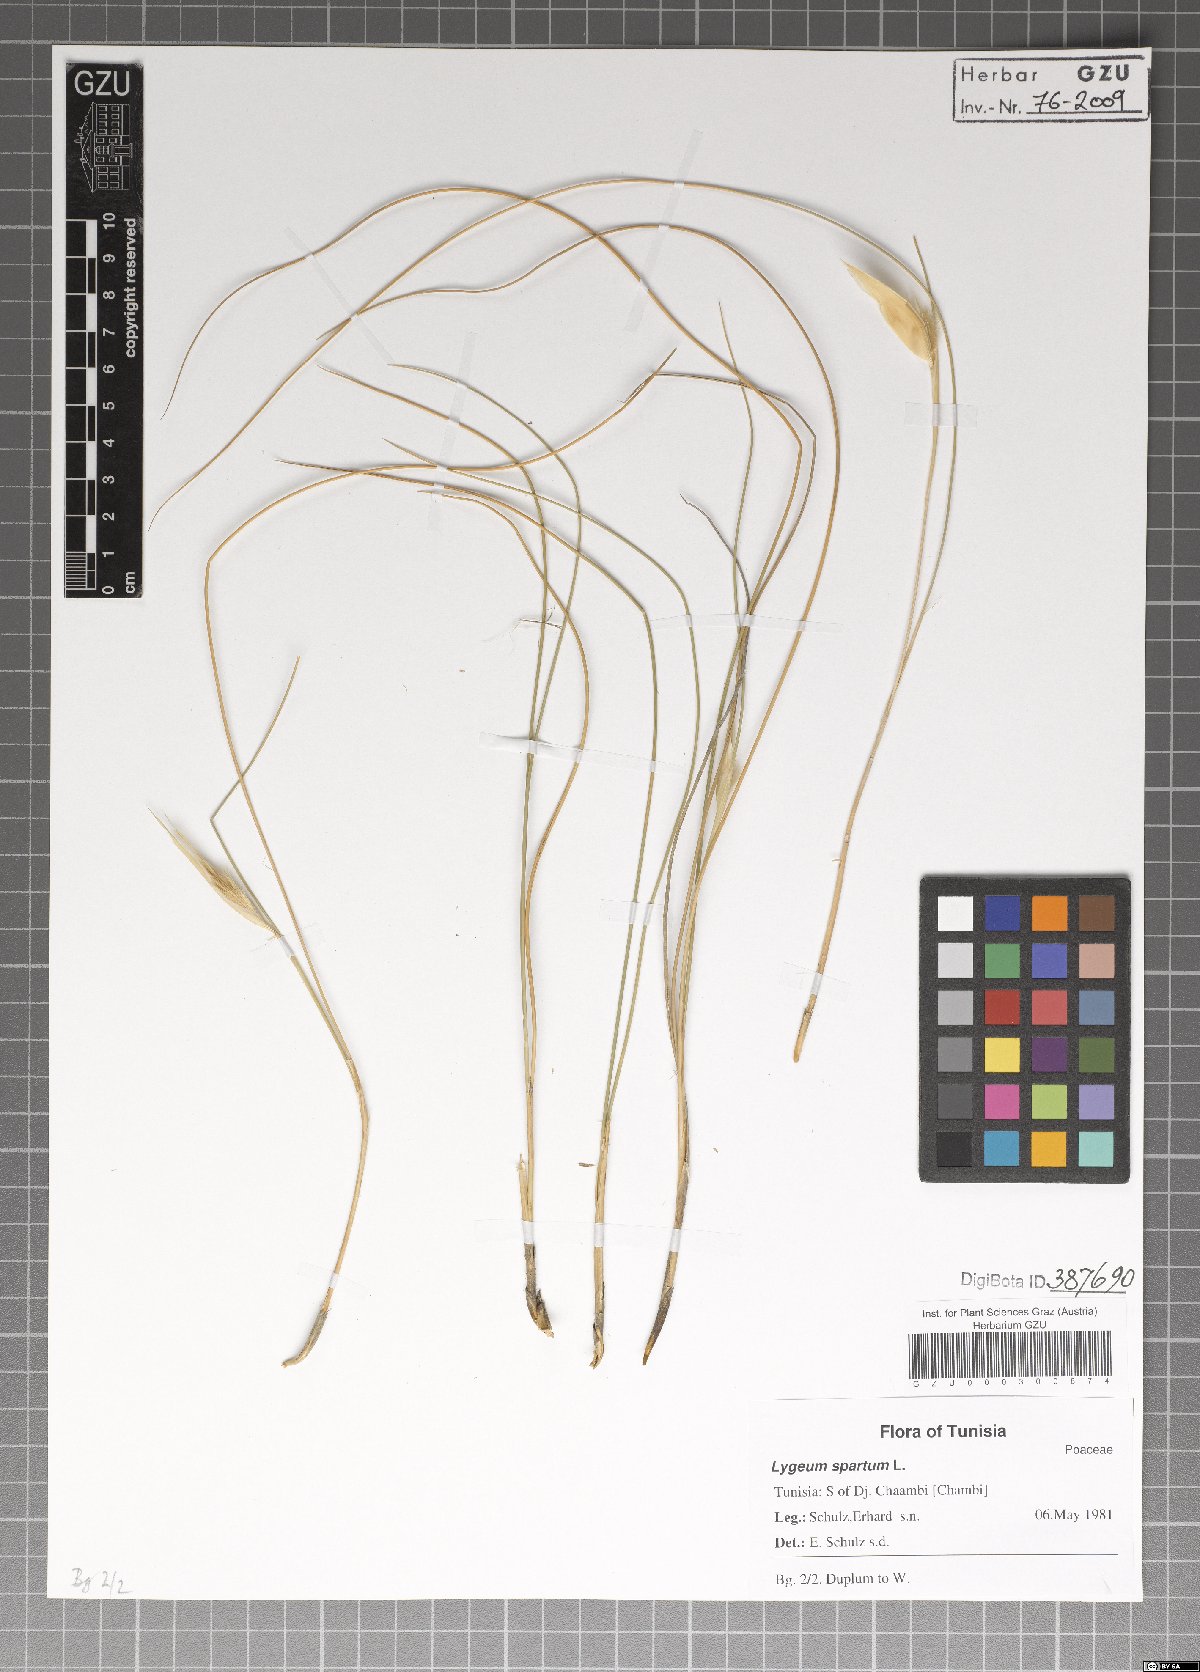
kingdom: Plantae
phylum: Tracheophyta
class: Liliopsida
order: Poales
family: Poaceae
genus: Lygeum
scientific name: Lygeum spartum
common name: Albardine
